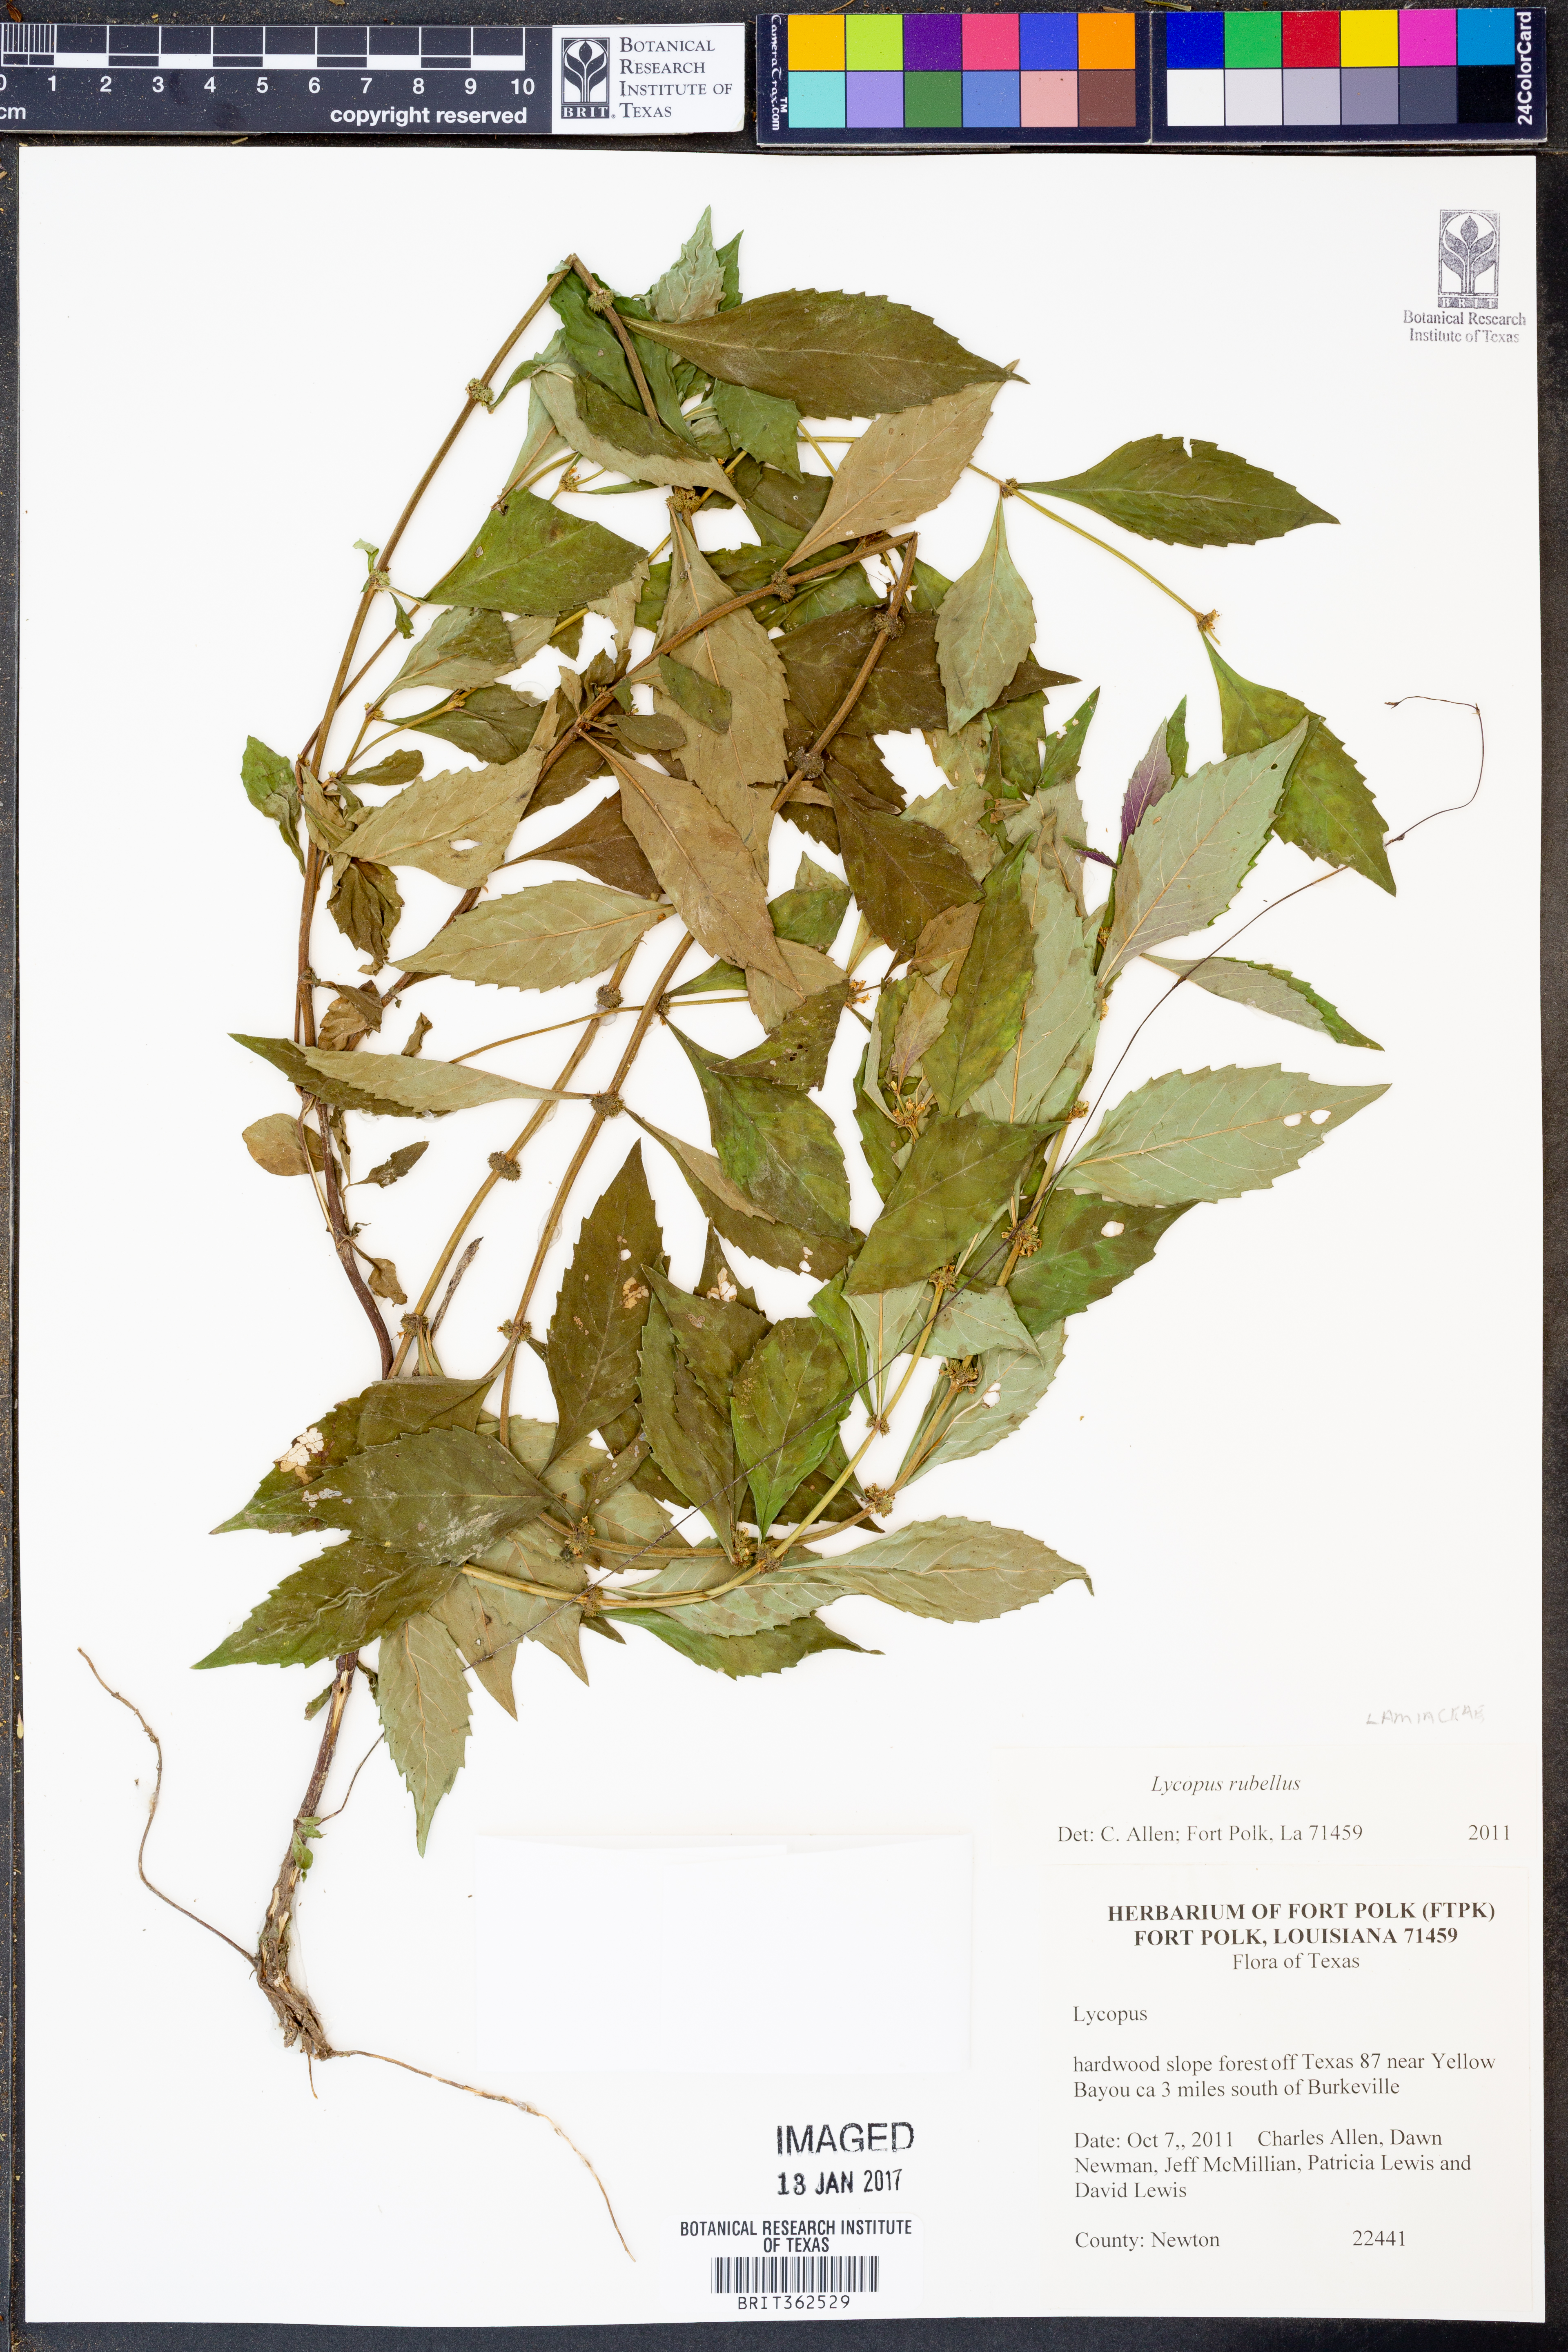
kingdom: Plantae
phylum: Tracheophyta
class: Magnoliopsida
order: Lamiales
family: Lamiaceae
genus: Lycopus
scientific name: Lycopus rubellus
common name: Stalked bugleweed
